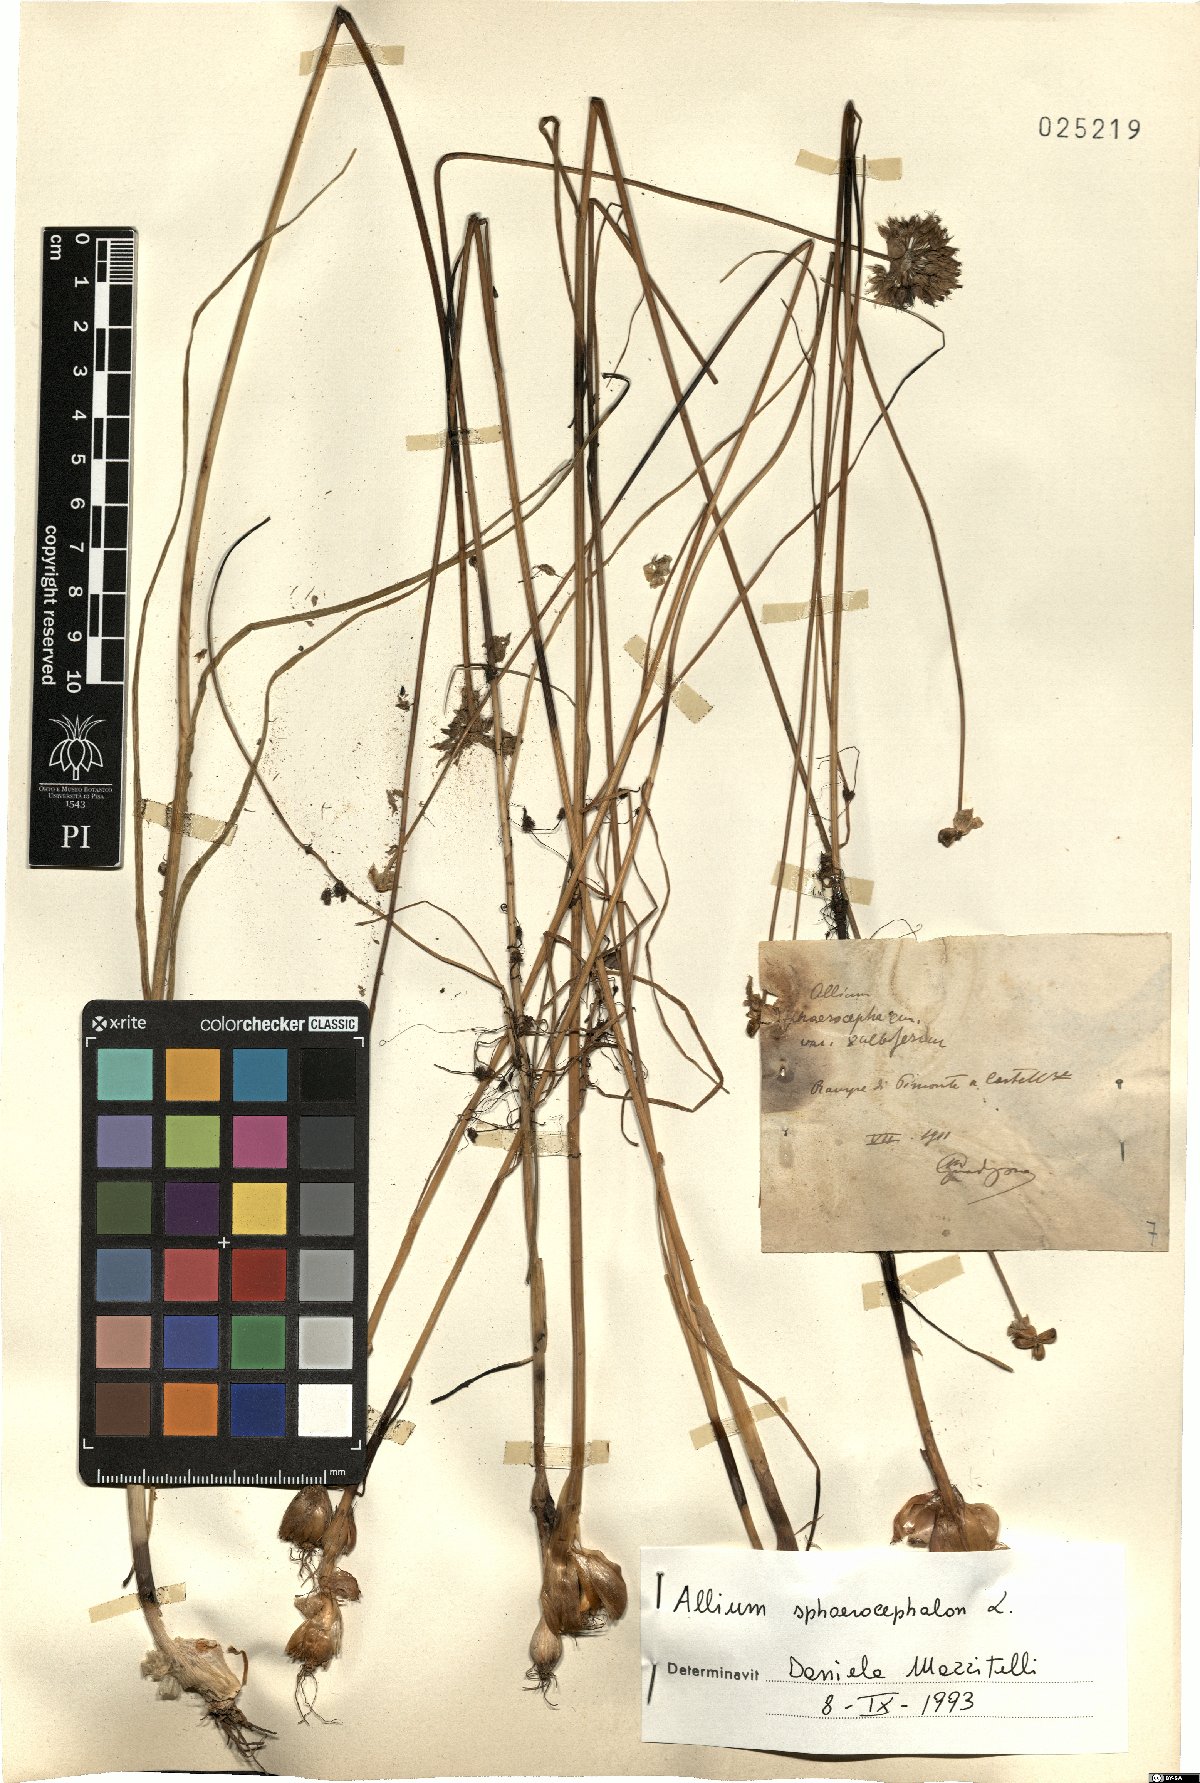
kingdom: Plantae
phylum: Tracheophyta
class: Liliopsida
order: Asparagales
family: Amaryllidaceae
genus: Allium
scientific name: Allium sphaerocephalon
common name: Round-headed leek
